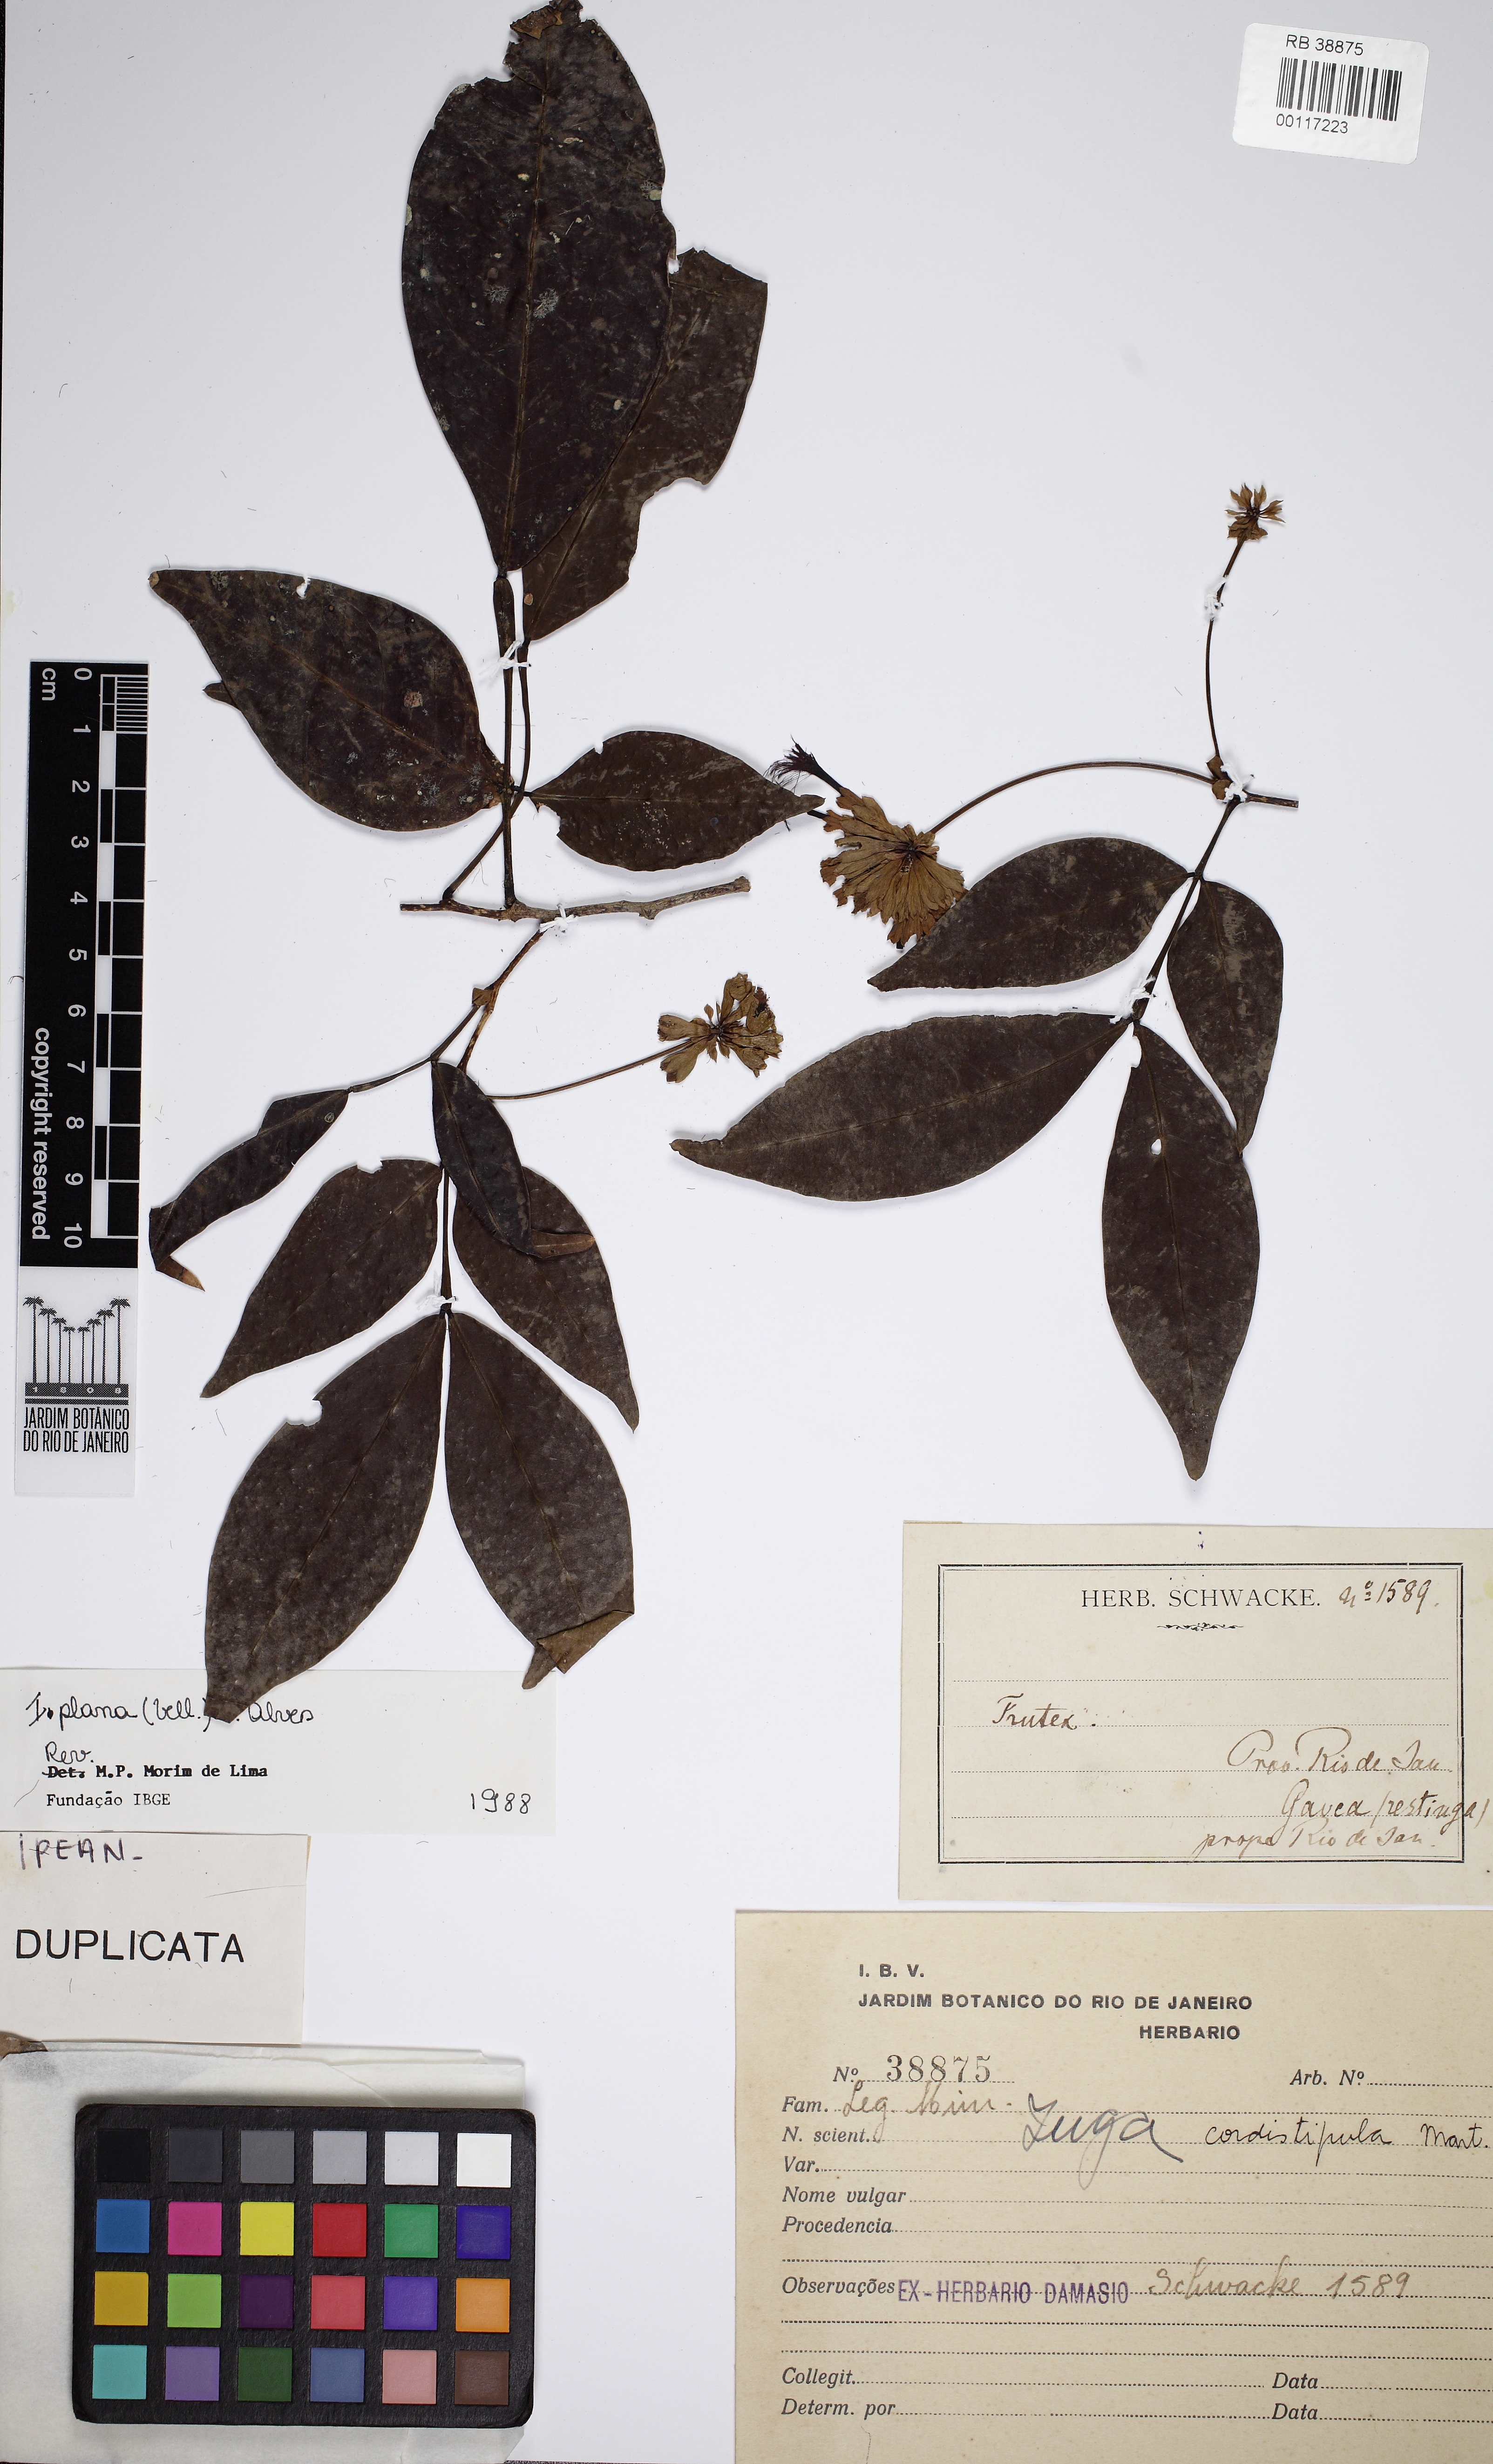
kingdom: Plantae
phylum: Tracheophyta
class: Magnoliopsida
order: Fabales
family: Fabaceae
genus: Inga
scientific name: Inga cordistipula
